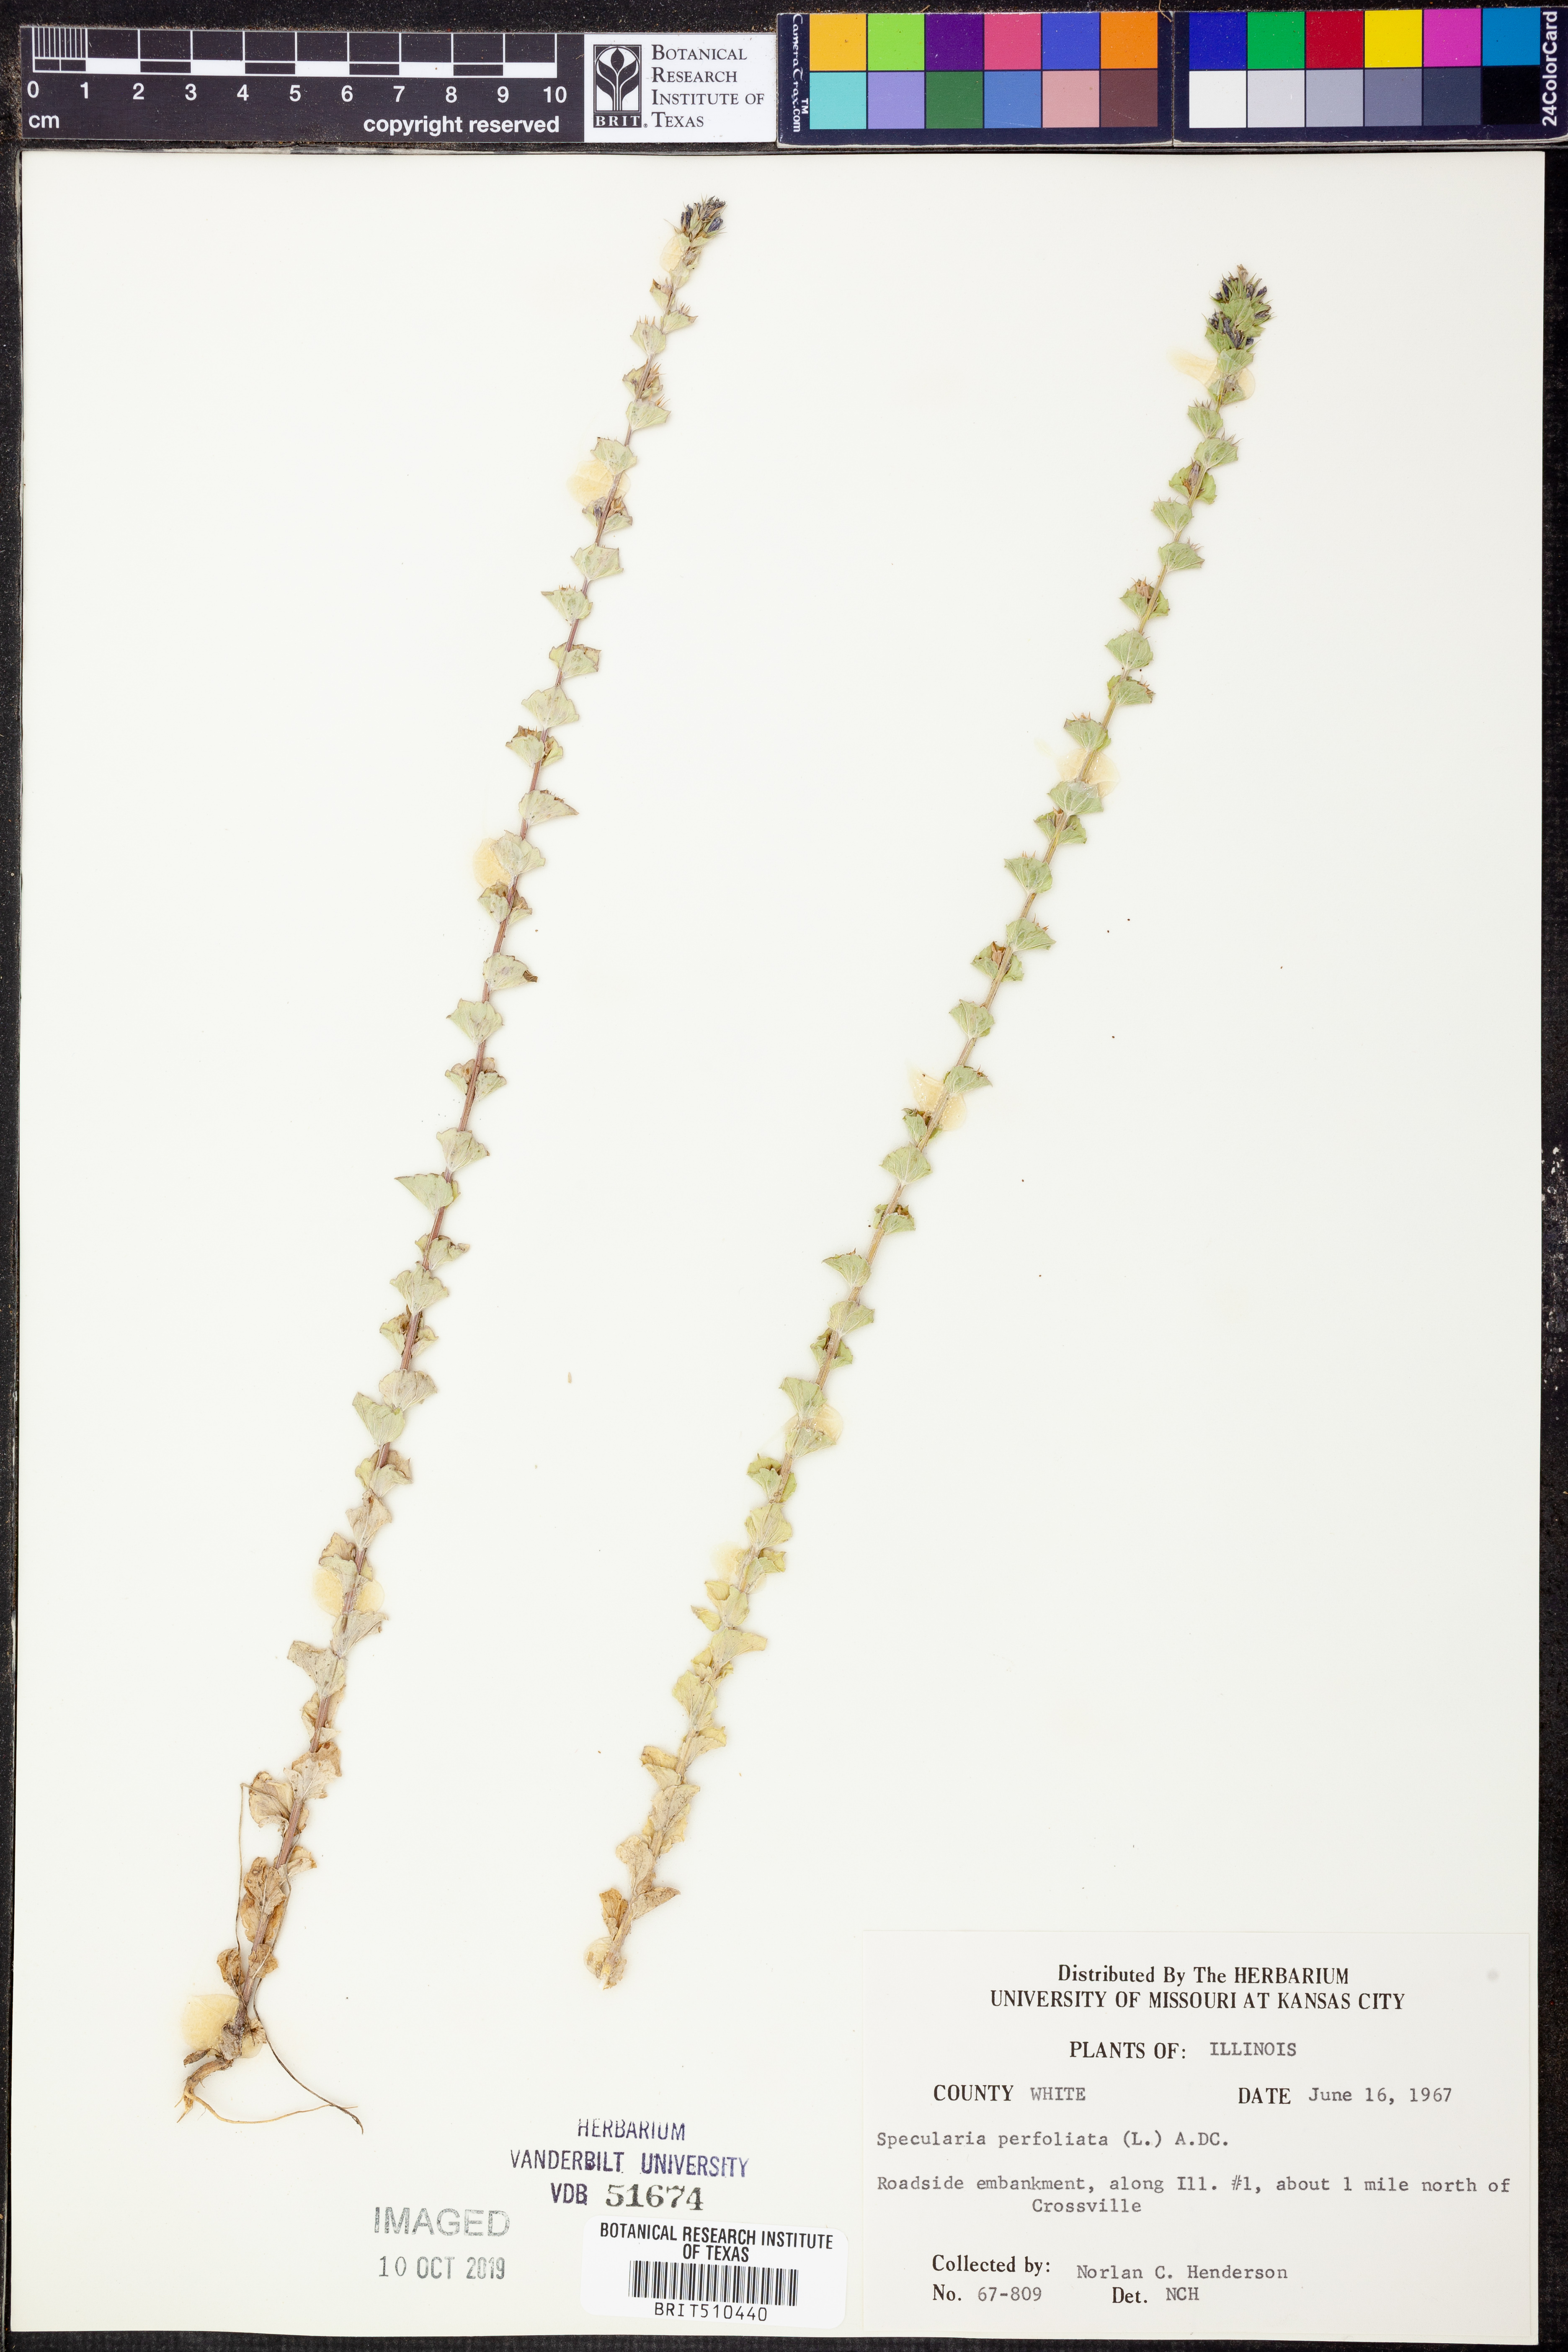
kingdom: Plantae
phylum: Tracheophyta
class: Magnoliopsida
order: Asterales
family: Campanulaceae
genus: Triodanis
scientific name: Triodanis perfoliata
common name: Clasping venus' looking-glass
